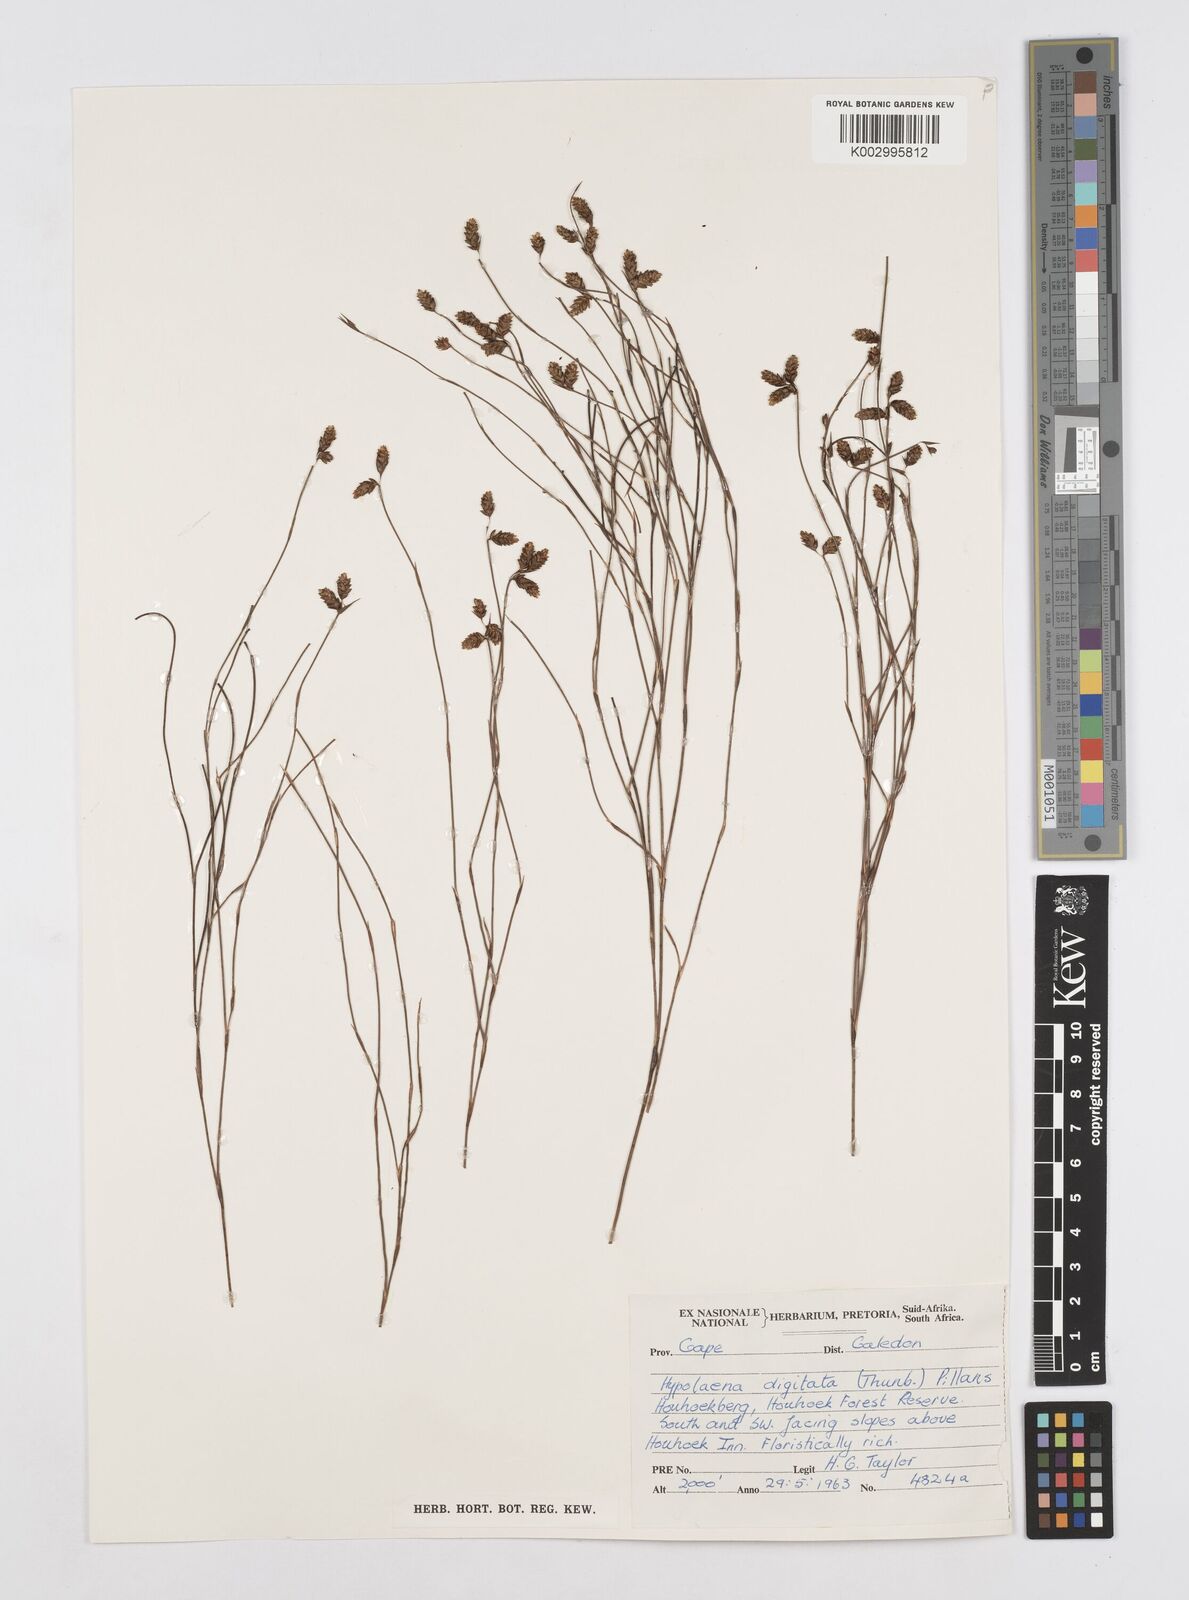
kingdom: Plantae
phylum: Tracheophyta
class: Liliopsida
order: Poales
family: Restionaceae
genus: Mastersiella
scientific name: Mastersiella digitata
